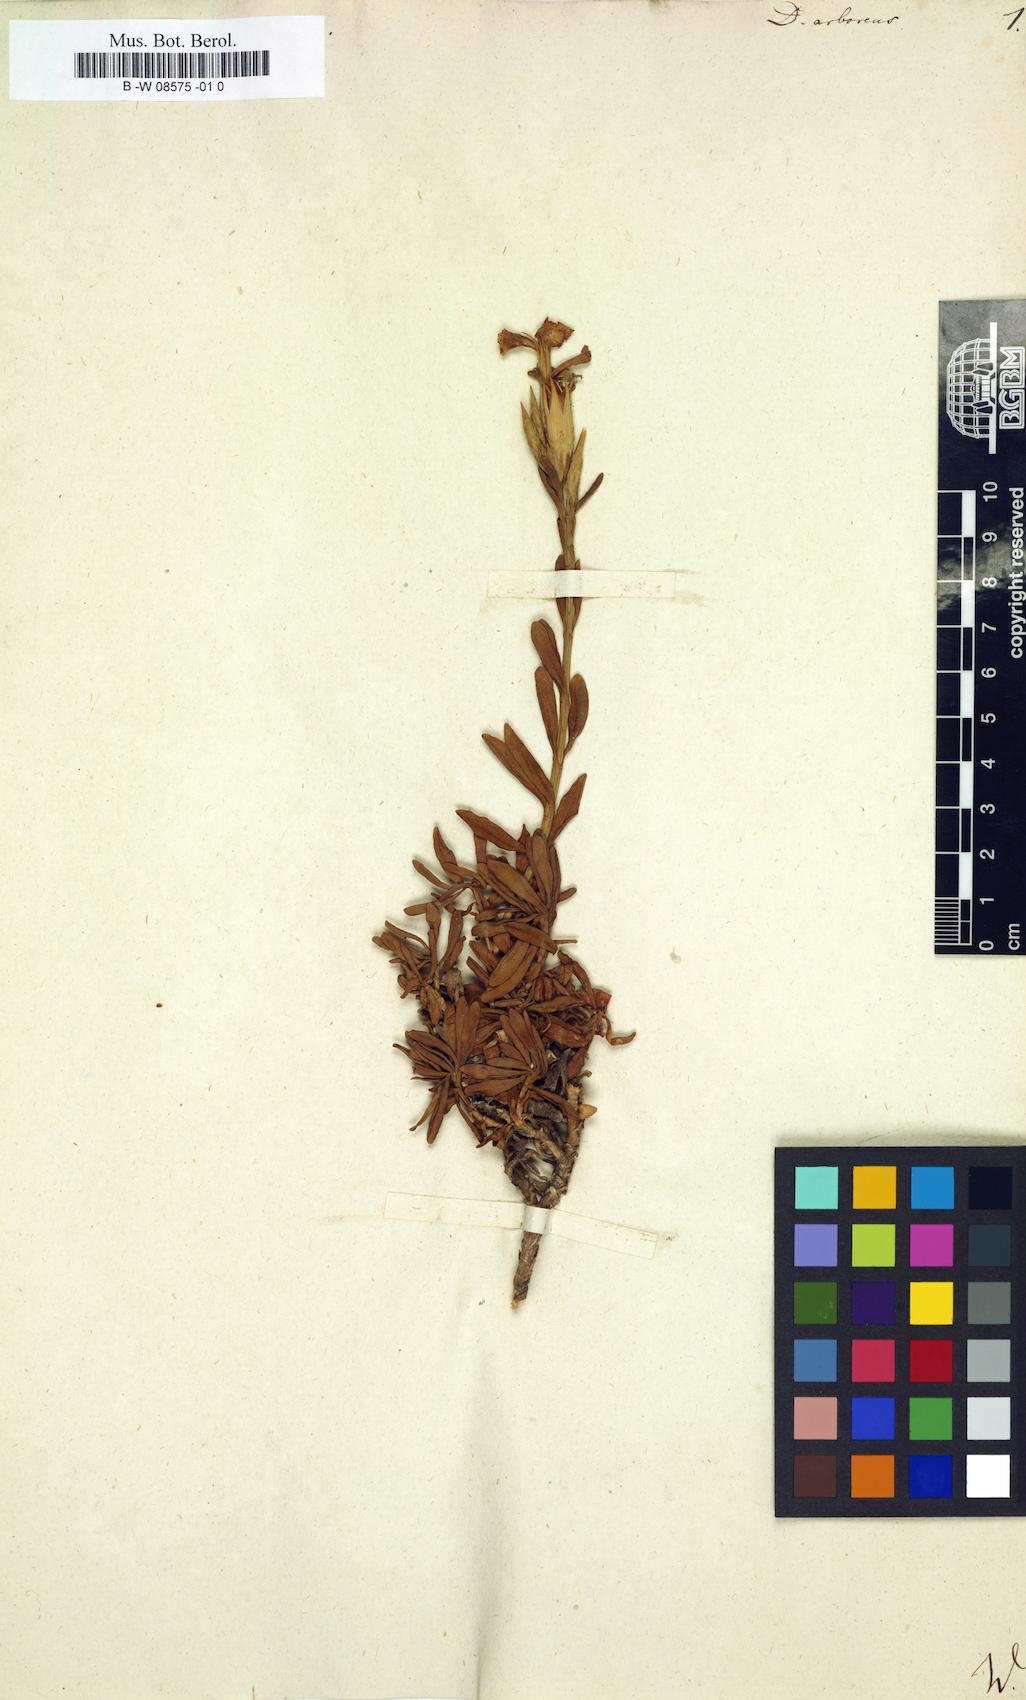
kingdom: Plantae
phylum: Tracheophyta
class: Magnoliopsida
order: Caryophyllales
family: Caryophyllaceae
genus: Dianthus
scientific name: Dianthus juniperinus
